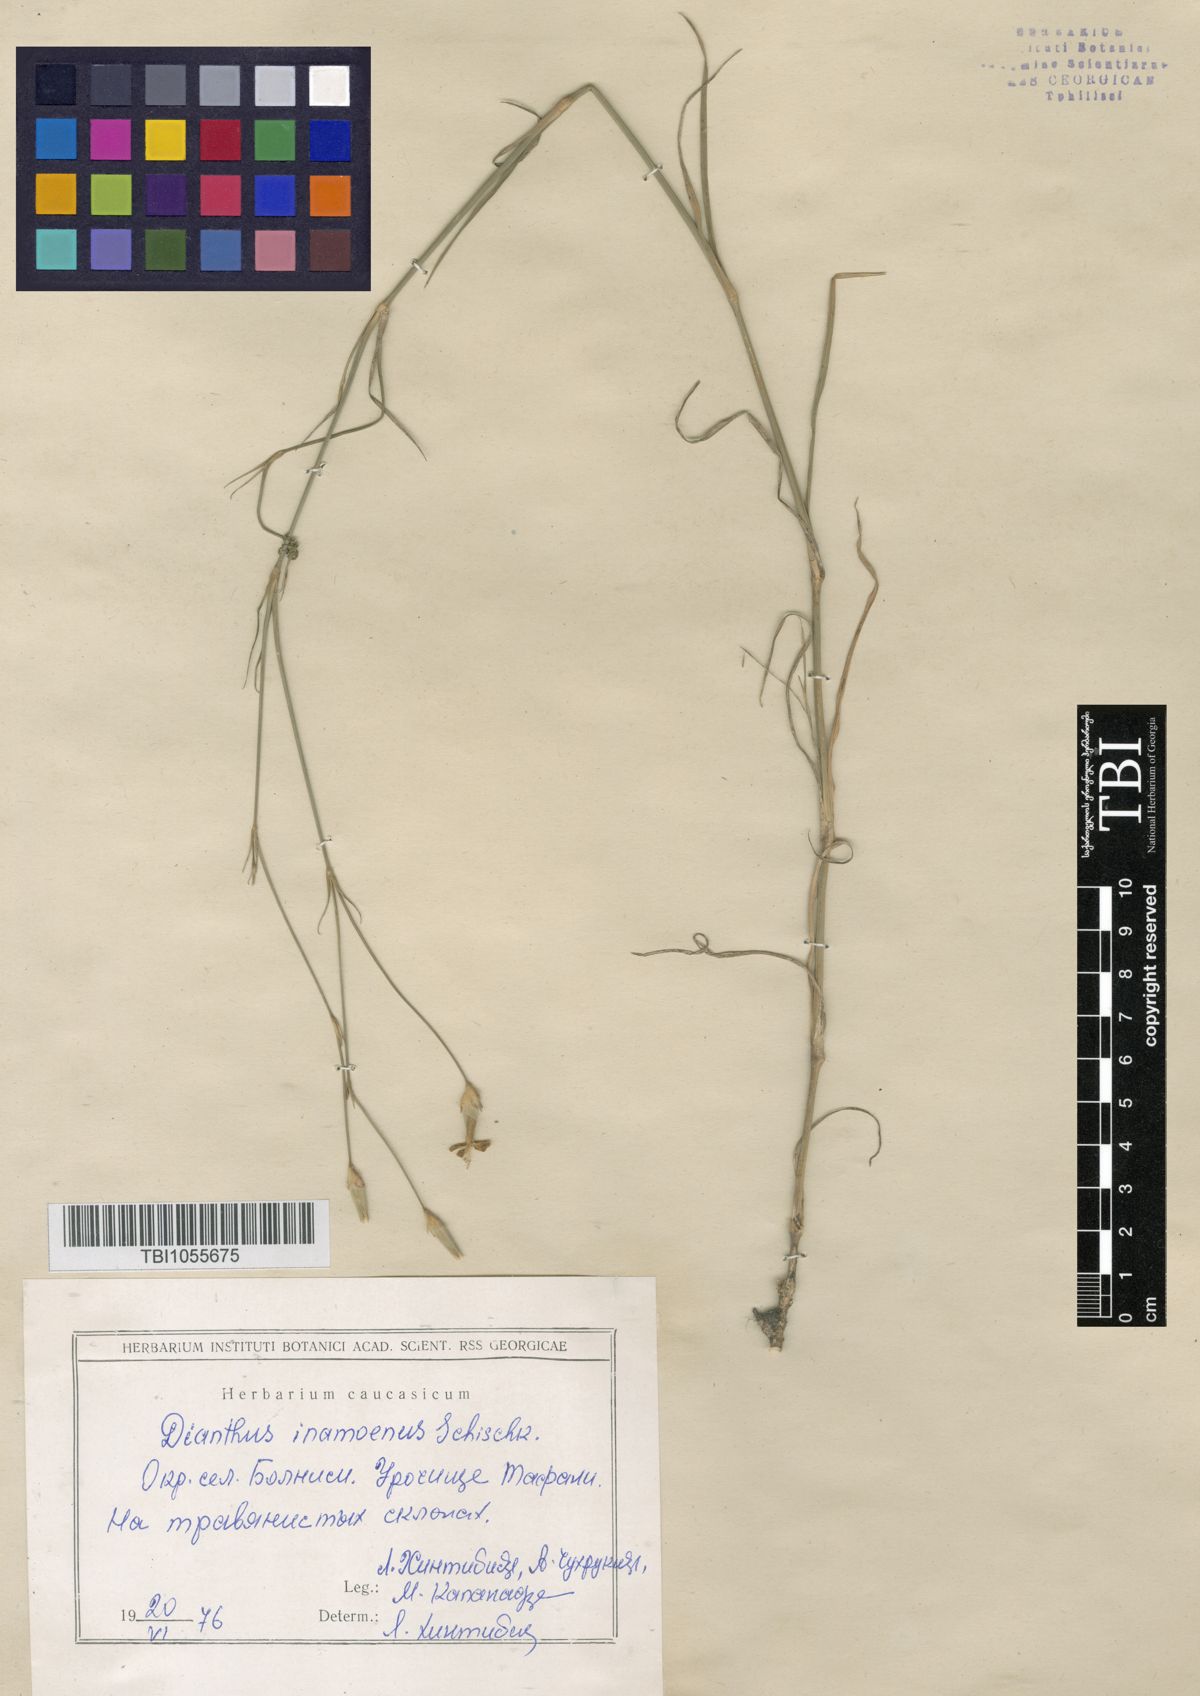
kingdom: Plantae
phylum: Tracheophyta
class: Magnoliopsida
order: Caryophyllales
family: Caryophyllaceae
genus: Dianthus
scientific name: Dianthus inamoenus
